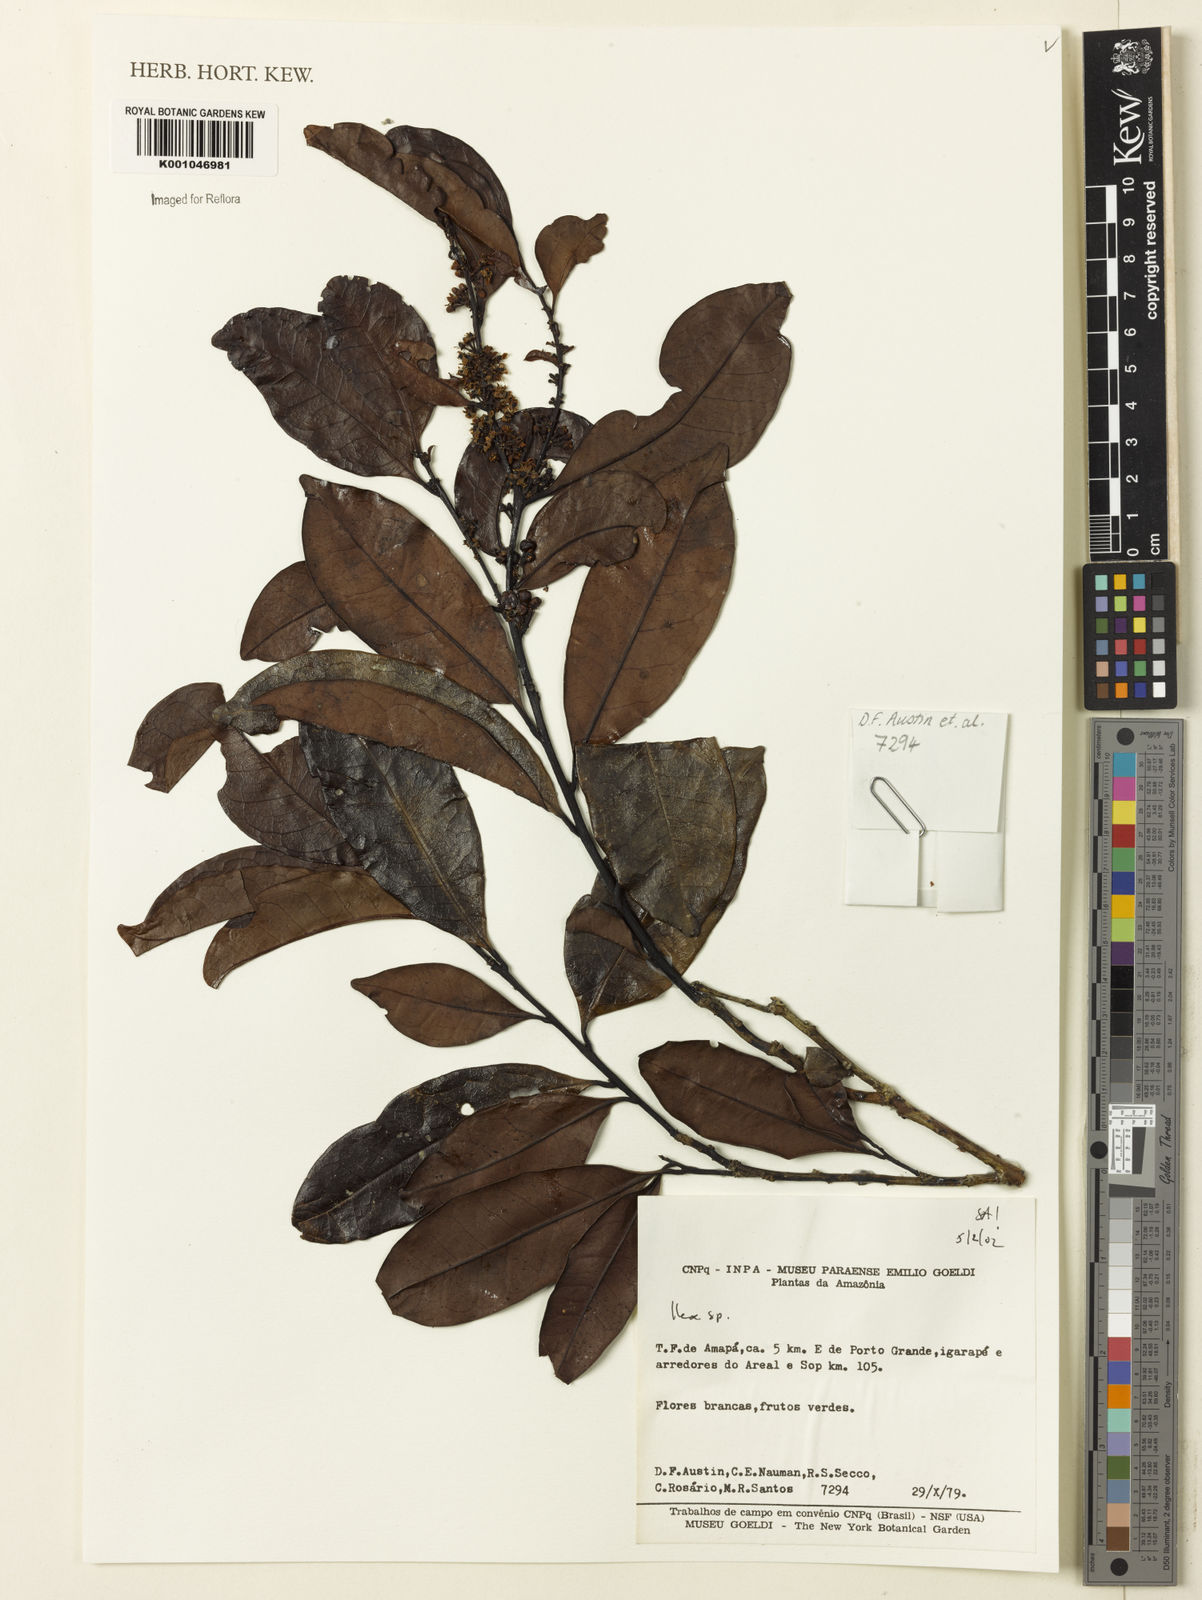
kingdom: Plantae
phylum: Tracheophyta
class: Magnoliopsida
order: Aquifoliales
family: Aquifoliaceae
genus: Ilex
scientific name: Ilex
